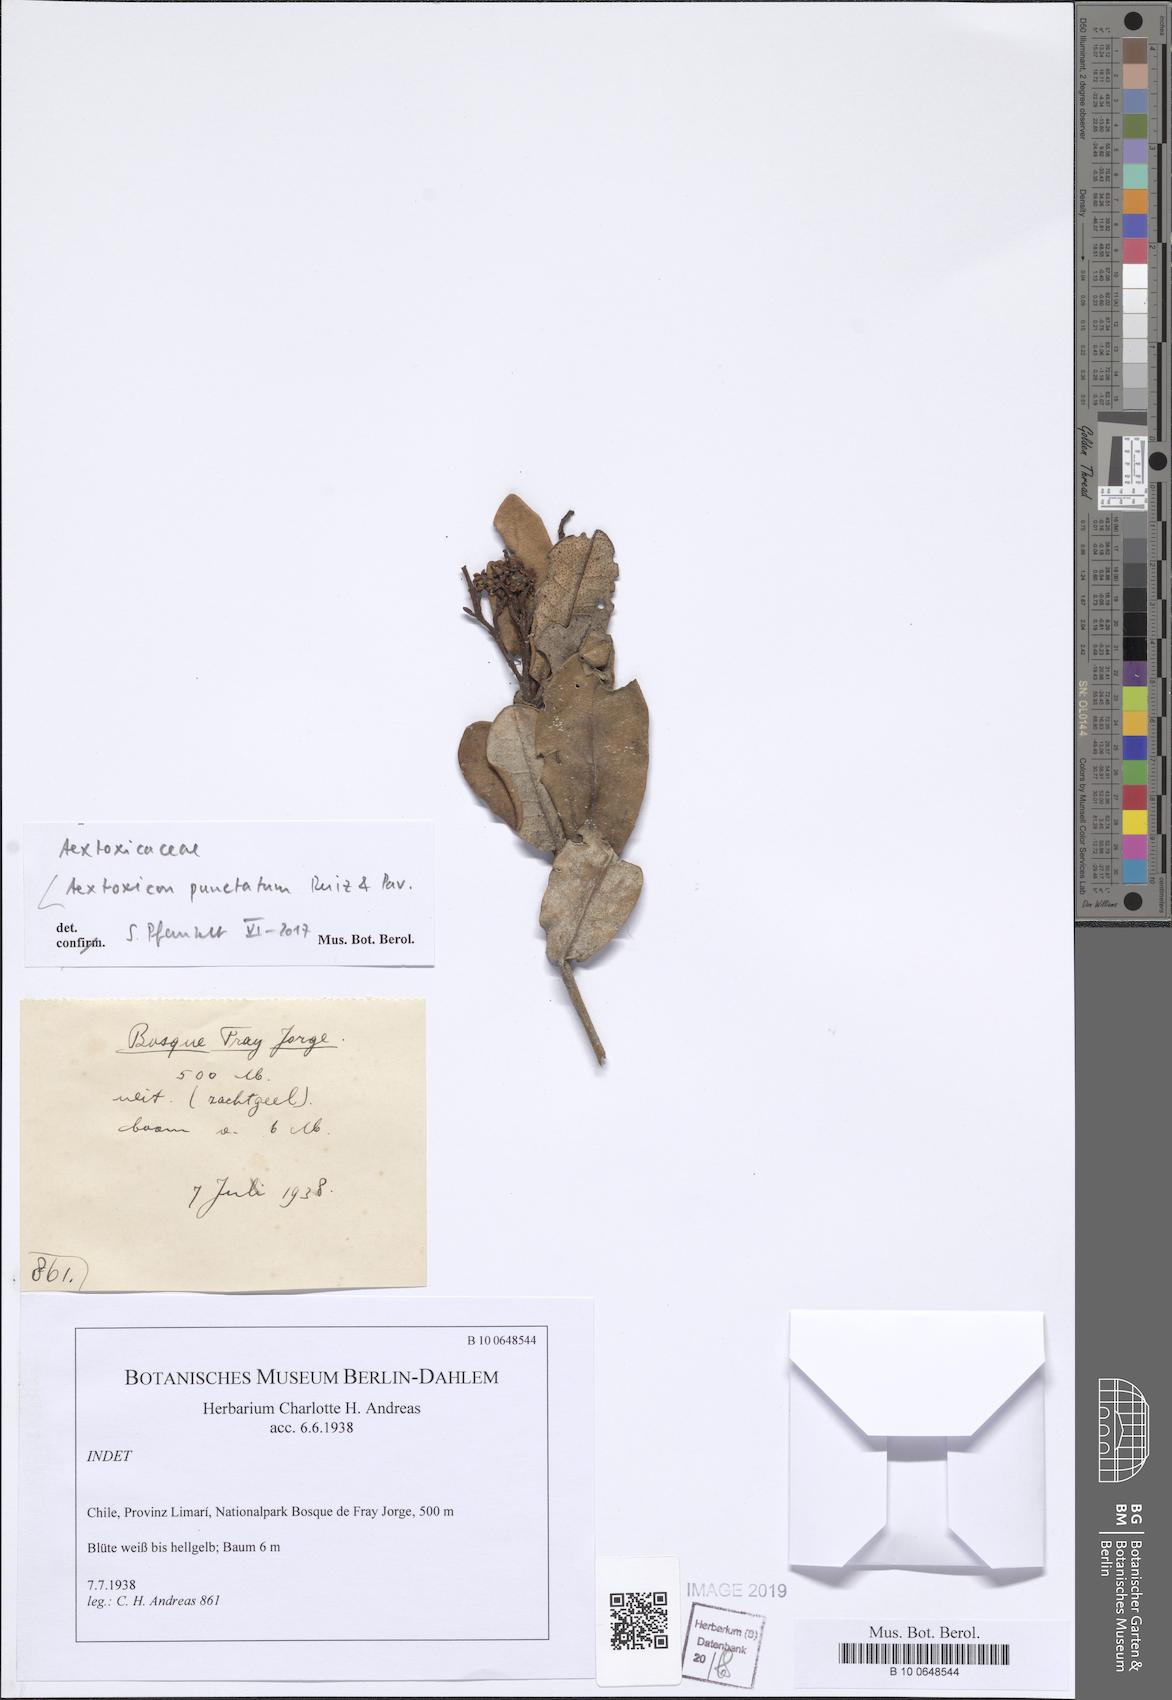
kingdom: Plantae
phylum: Tracheophyta
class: Magnoliopsida
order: Berberidopsidales
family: Aextoxicaceae
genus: Aextoxicon
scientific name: Aextoxicon punctatum
